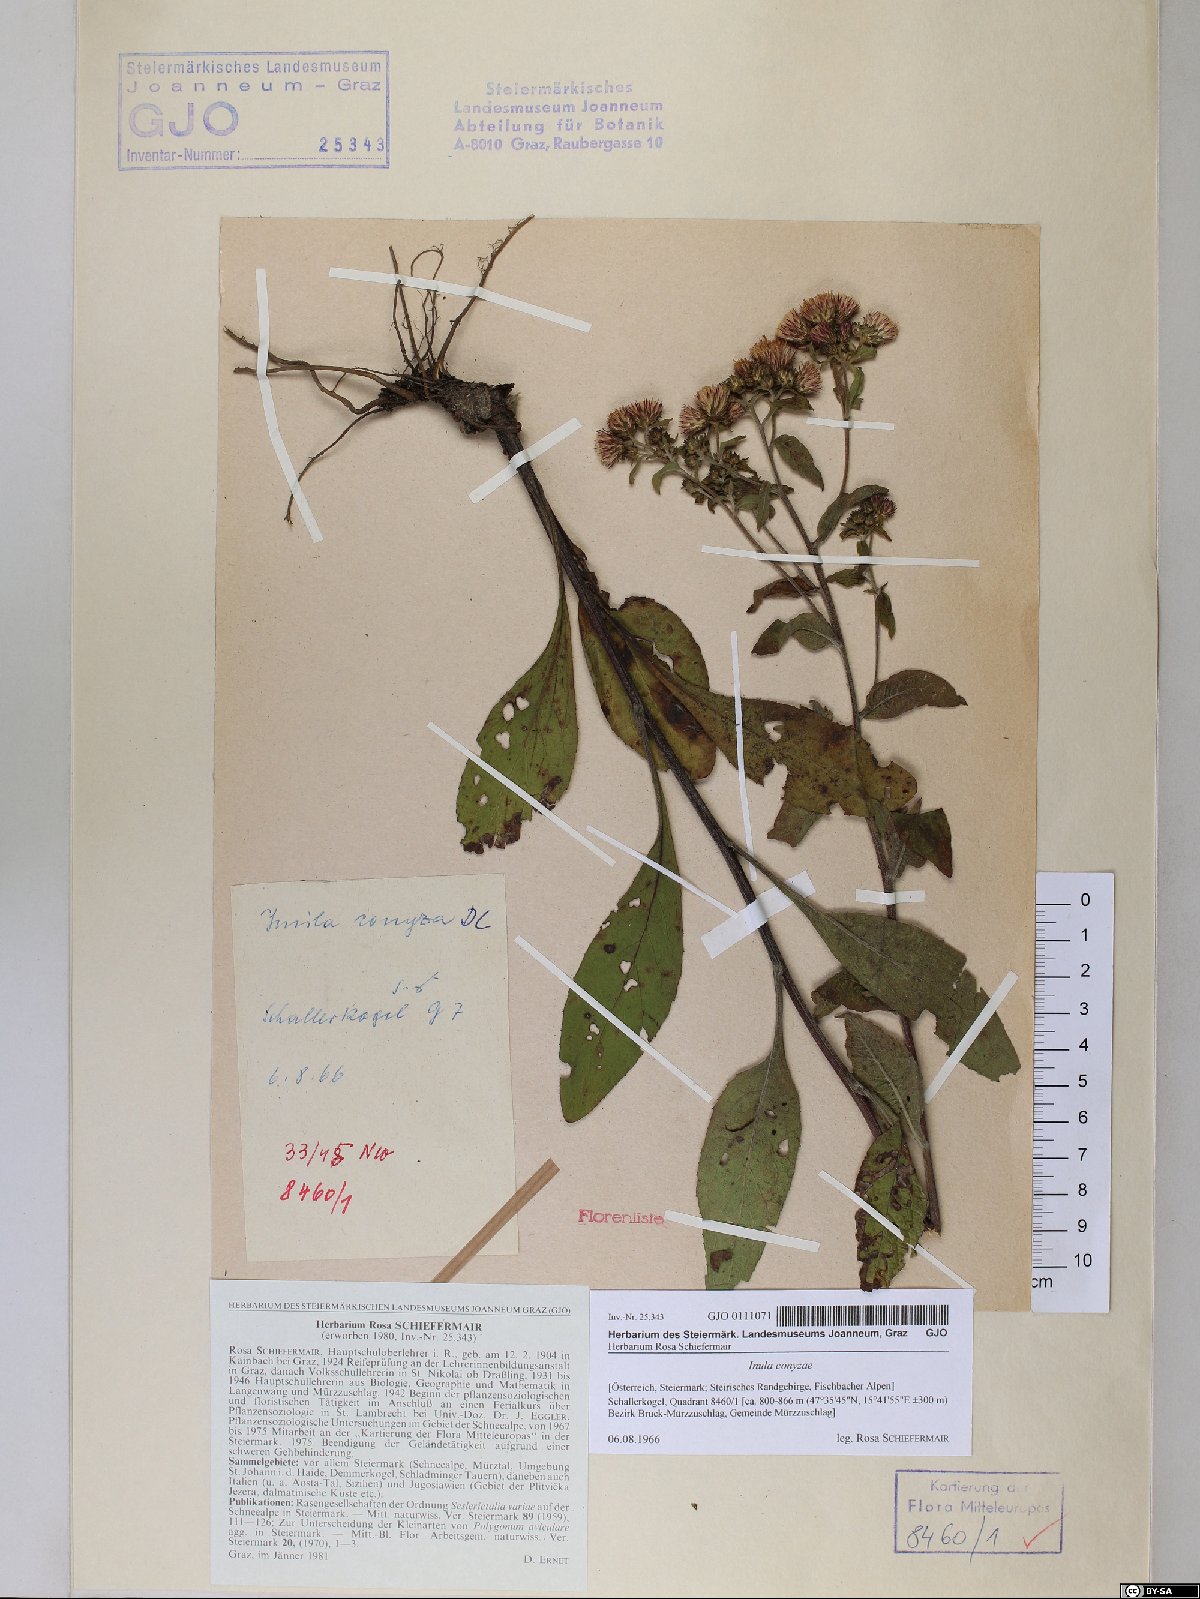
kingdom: Plantae
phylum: Tracheophyta
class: Magnoliopsida
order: Asterales
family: Asteraceae
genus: Pentanema
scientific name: Pentanema squarrosum
